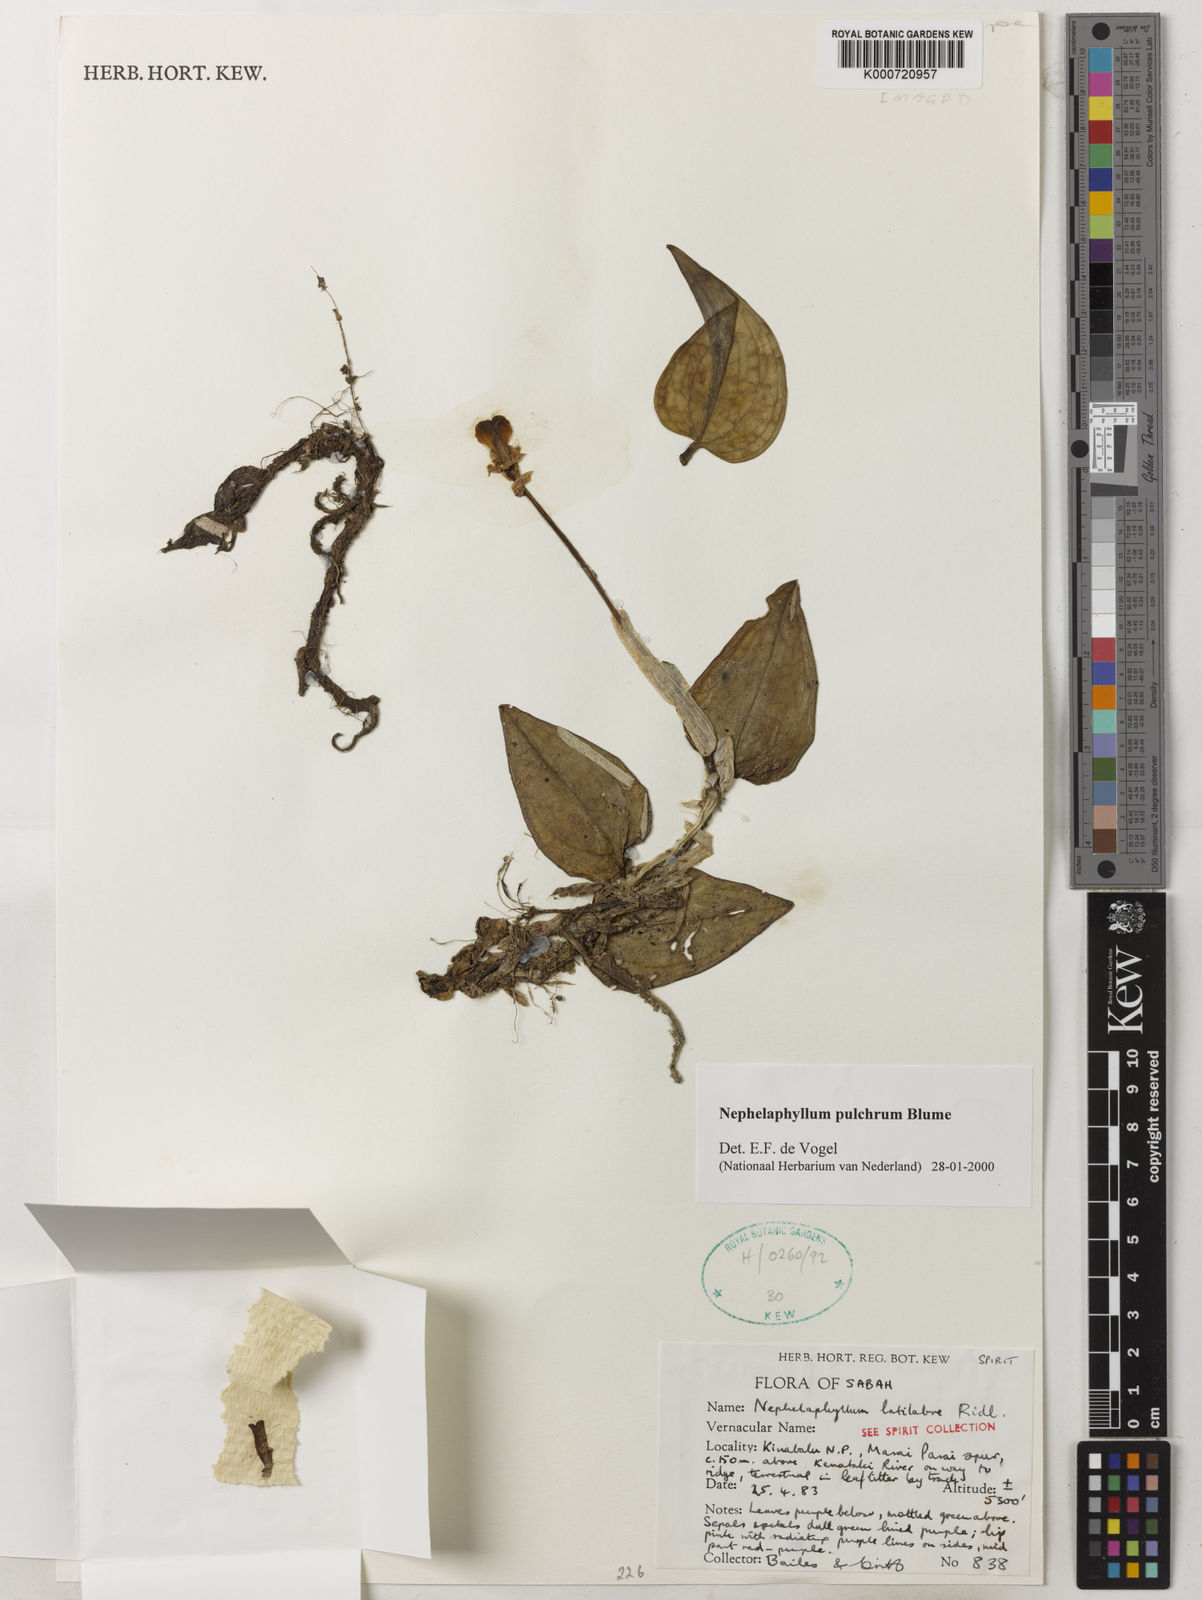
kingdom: Plantae
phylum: Tracheophyta
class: Liliopsida
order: Asparagales
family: Orchidaceae
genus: Nephelaphyllum
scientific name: Nephelaphyllum pulchrum
